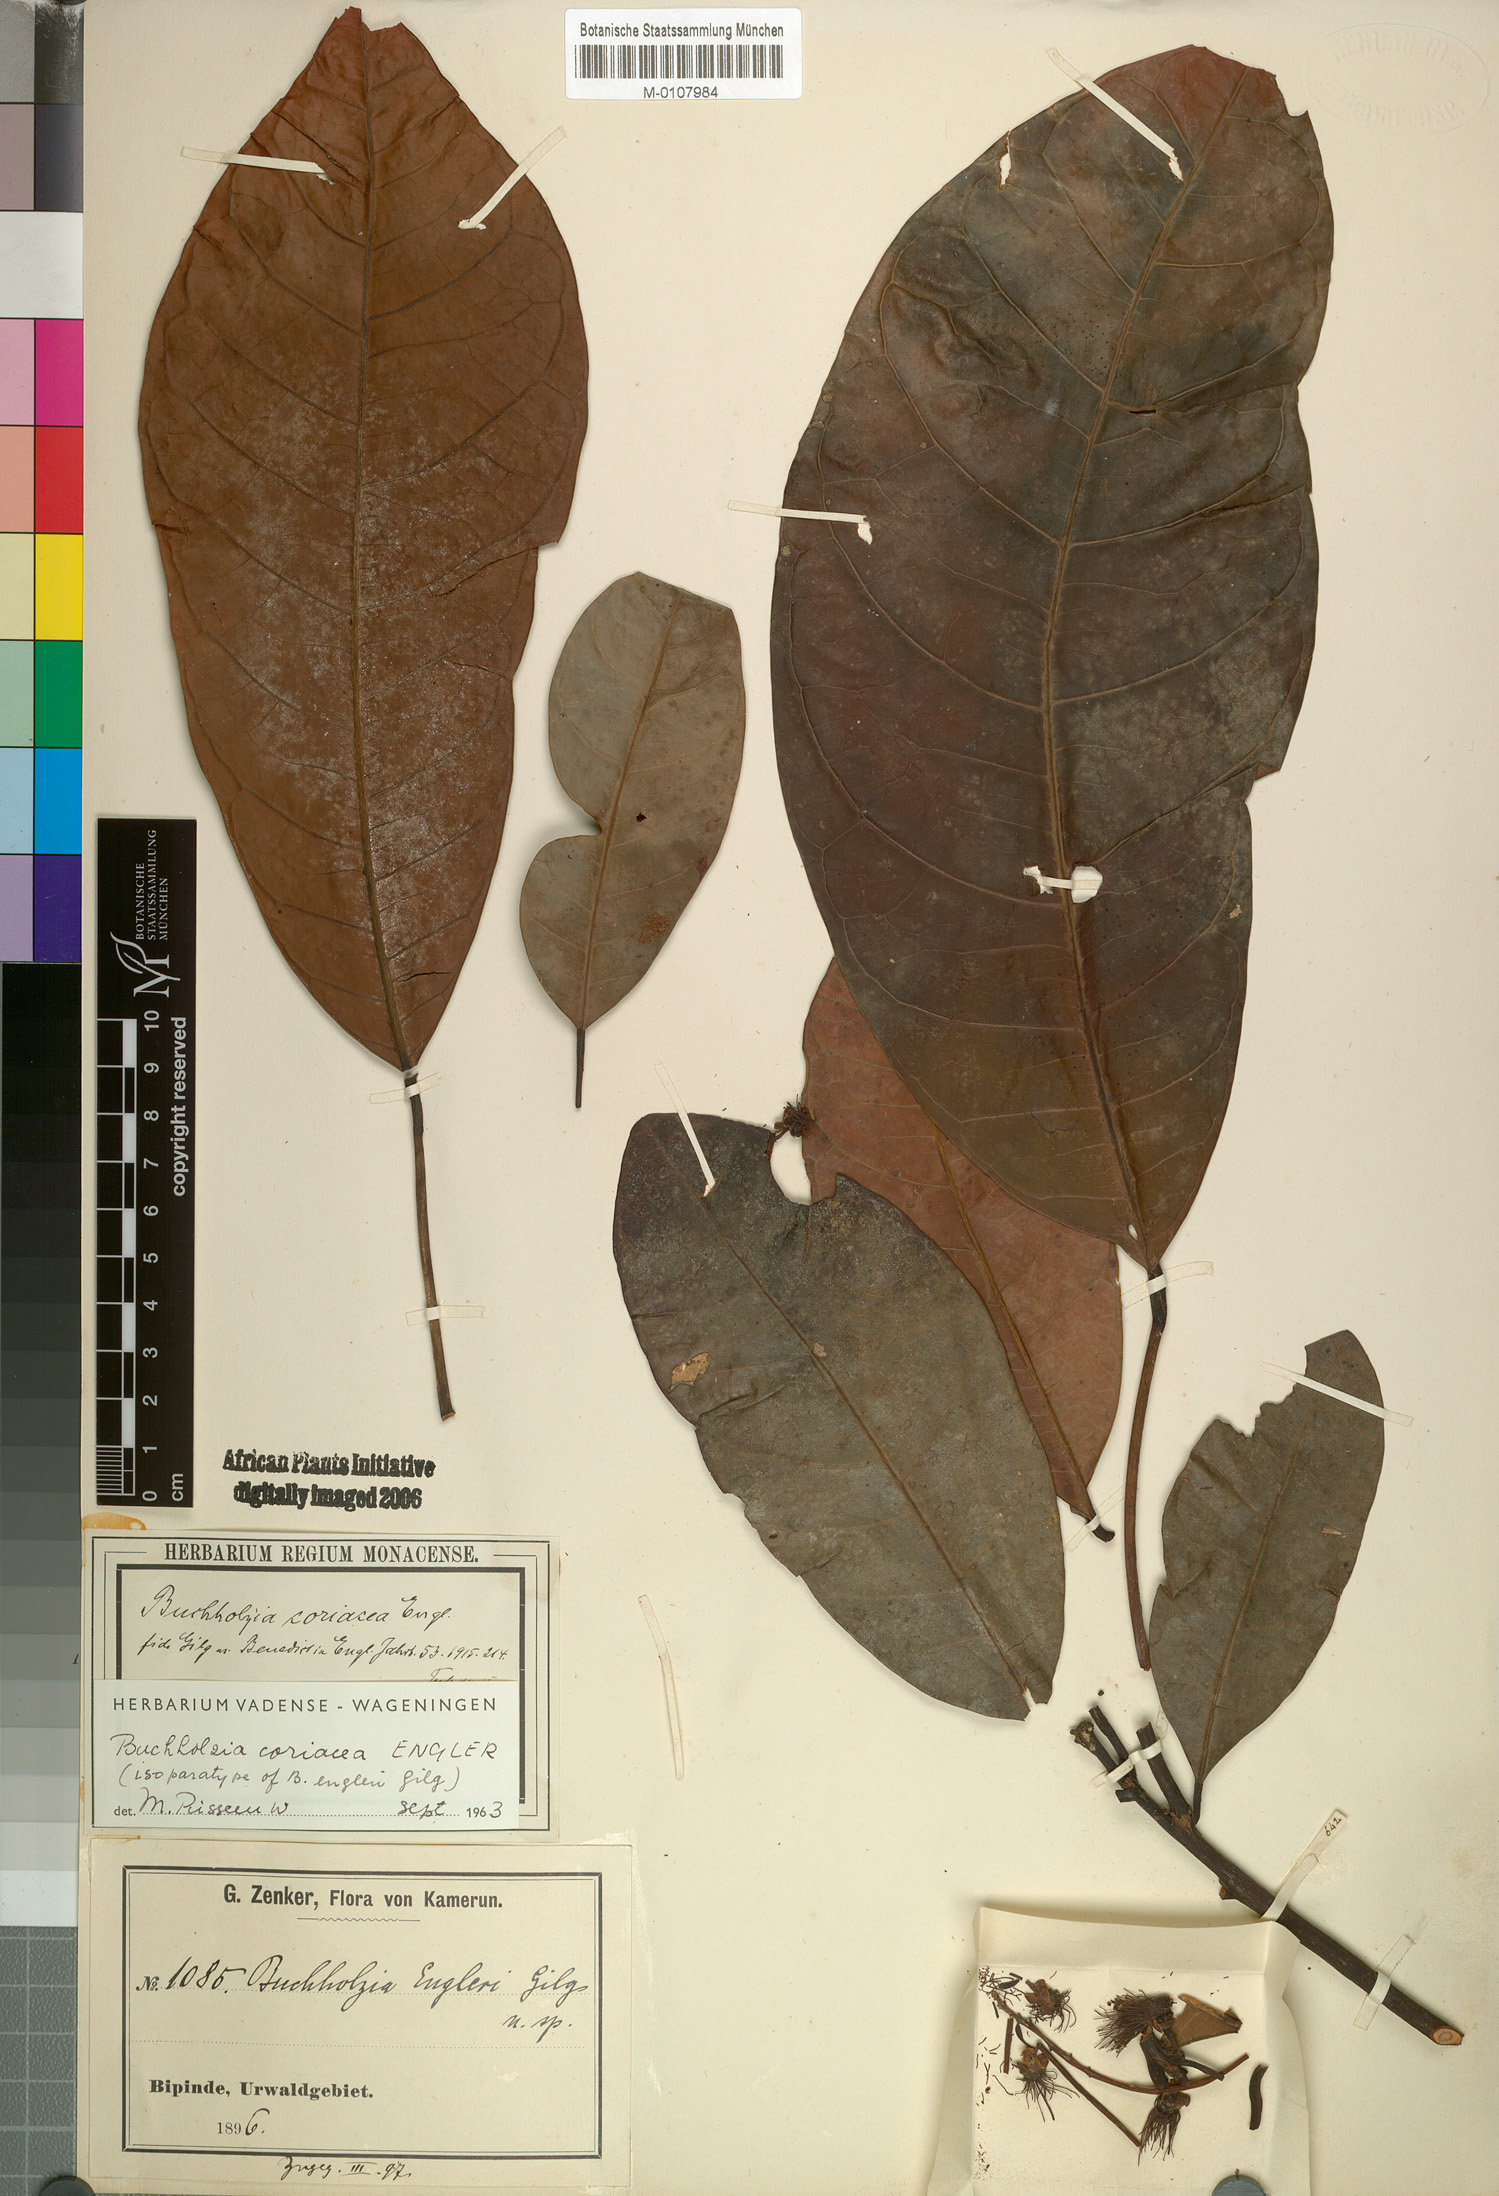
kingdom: Plantae
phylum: Tracheophyta
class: Magnoliopsida
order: Brassicales
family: Capparaceae
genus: Buchholzia
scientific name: Buchholzia coriacea
